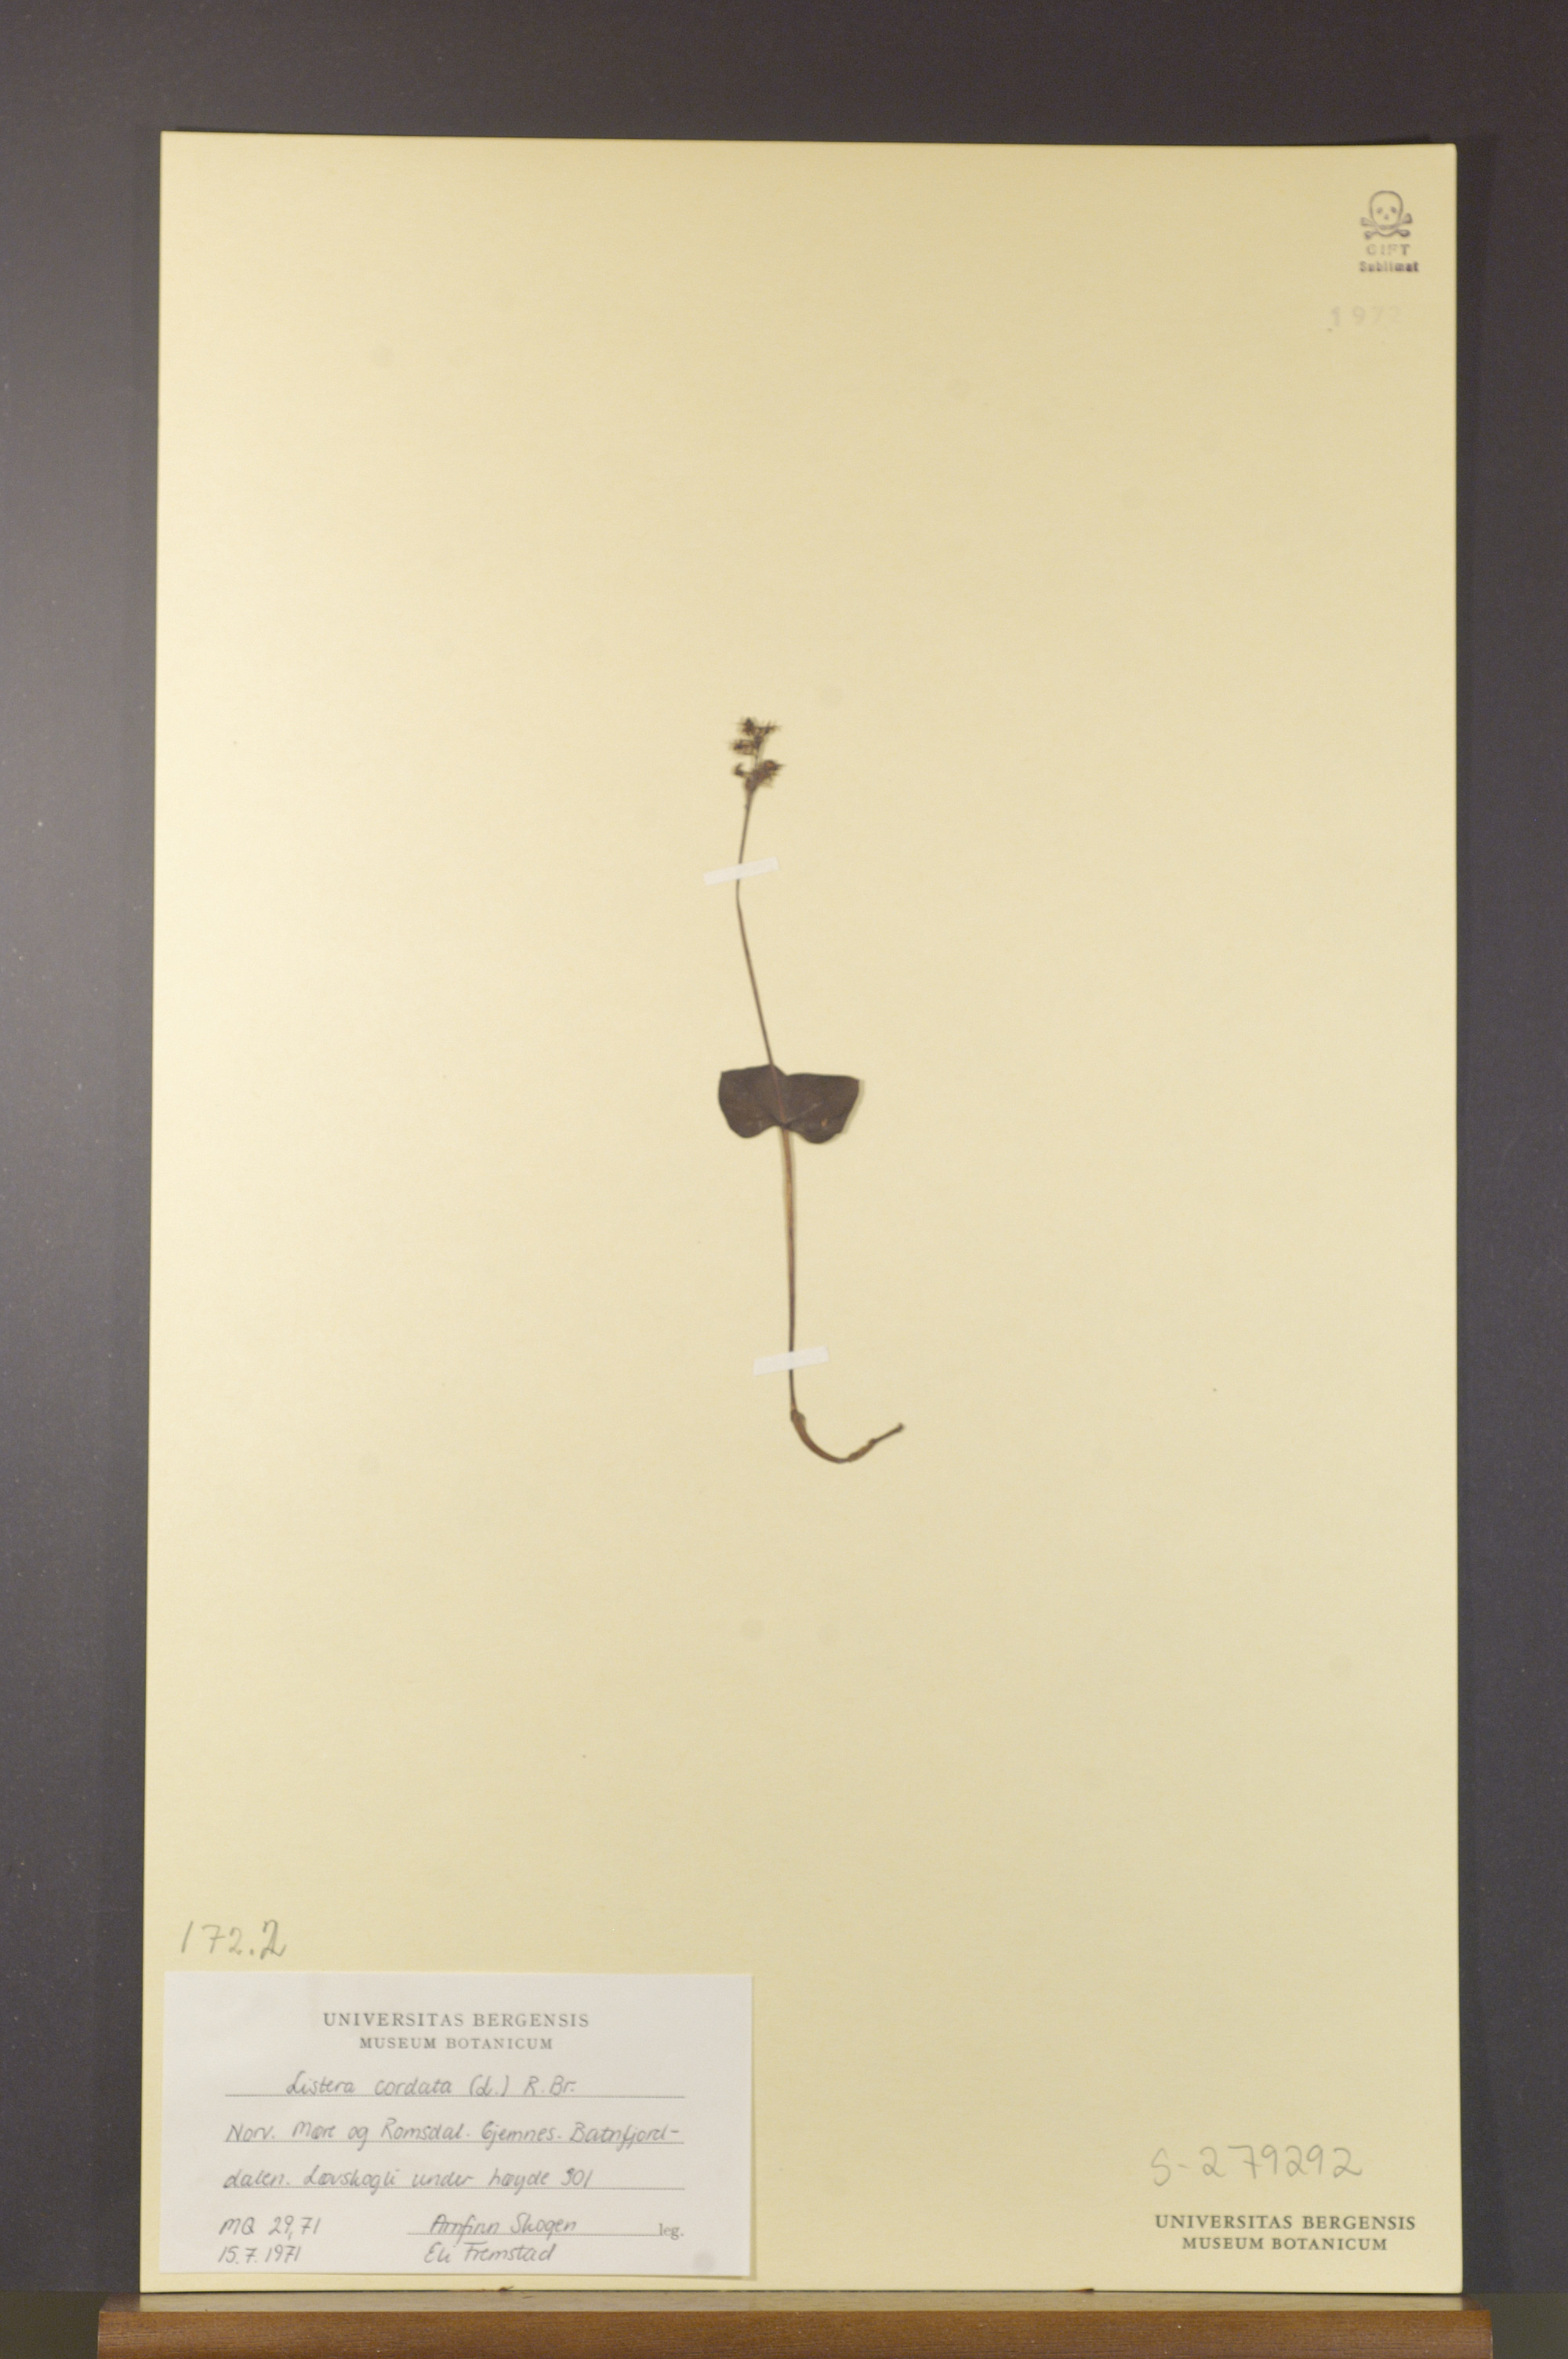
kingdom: Plantae
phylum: Tracheophyta
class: Liliopsida
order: Asparagales
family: Orchidaceae
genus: Neottia
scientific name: Neottia cordata
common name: Lesser twayblade
